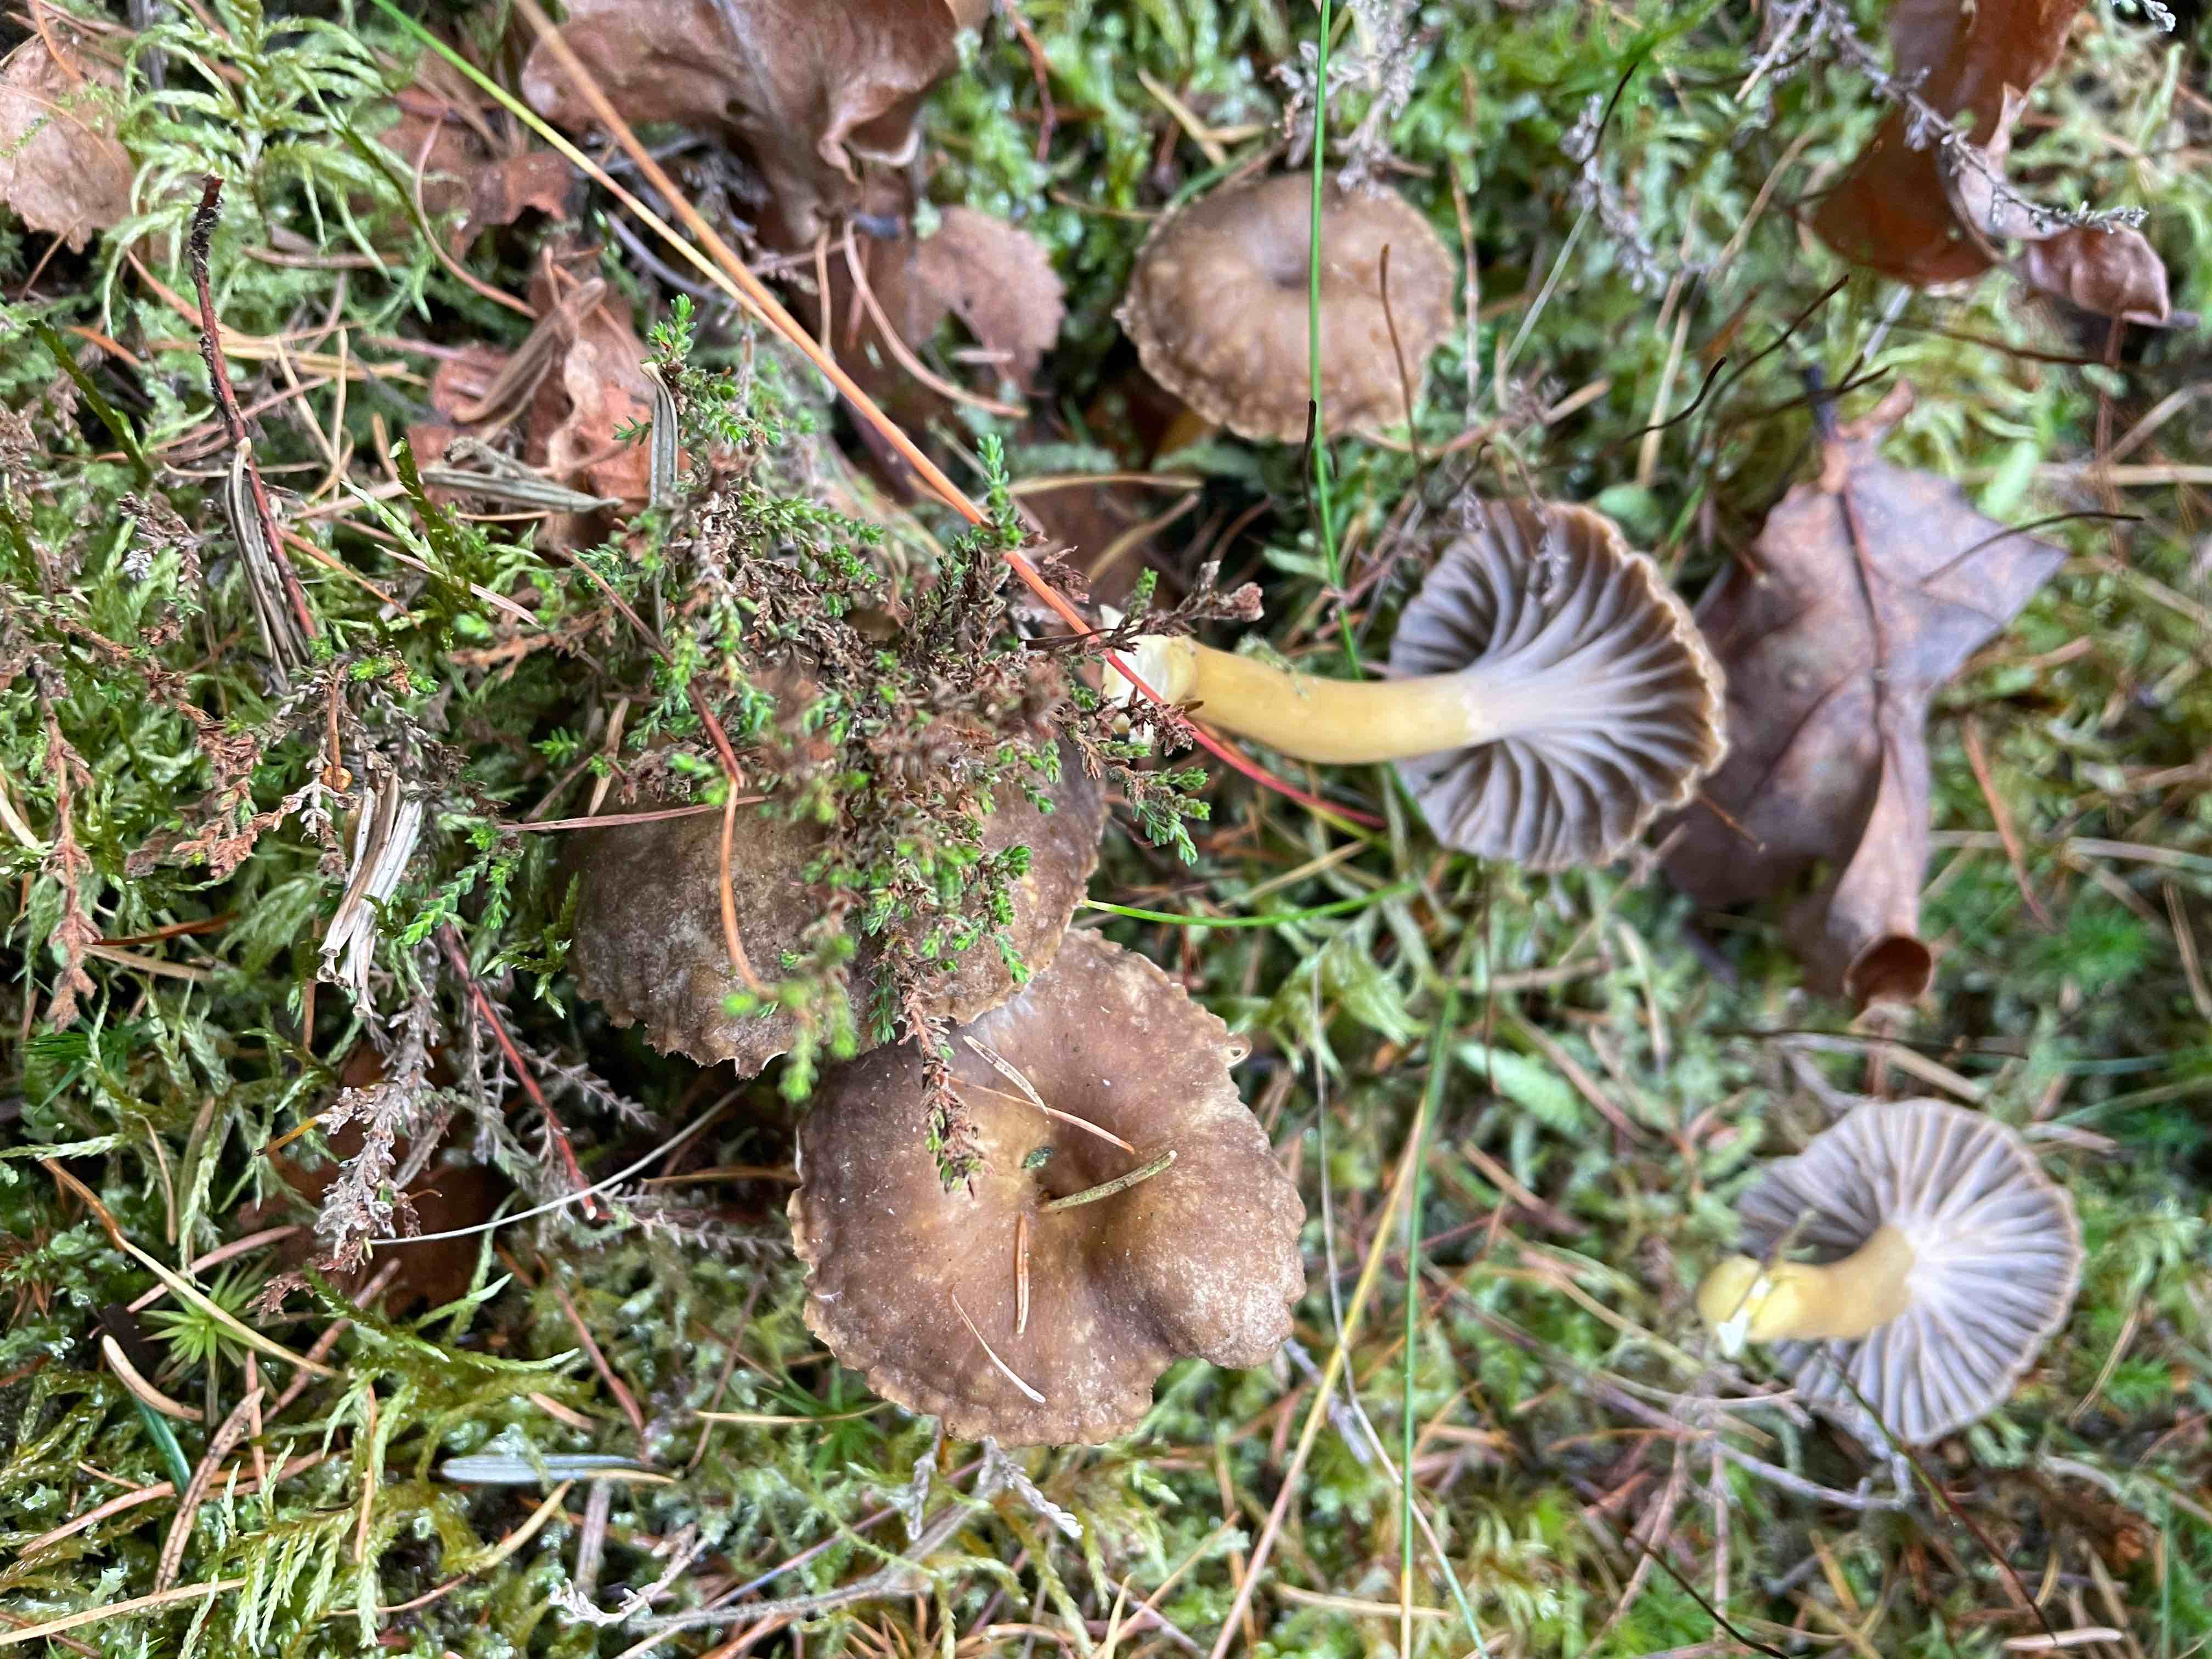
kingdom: Fungi
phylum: Basidiomycota
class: Agaricomycetes
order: Cantharellales
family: Hydnaceae
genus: Craterellus
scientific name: Craterellus tubaeformis
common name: tragt-kantarel
